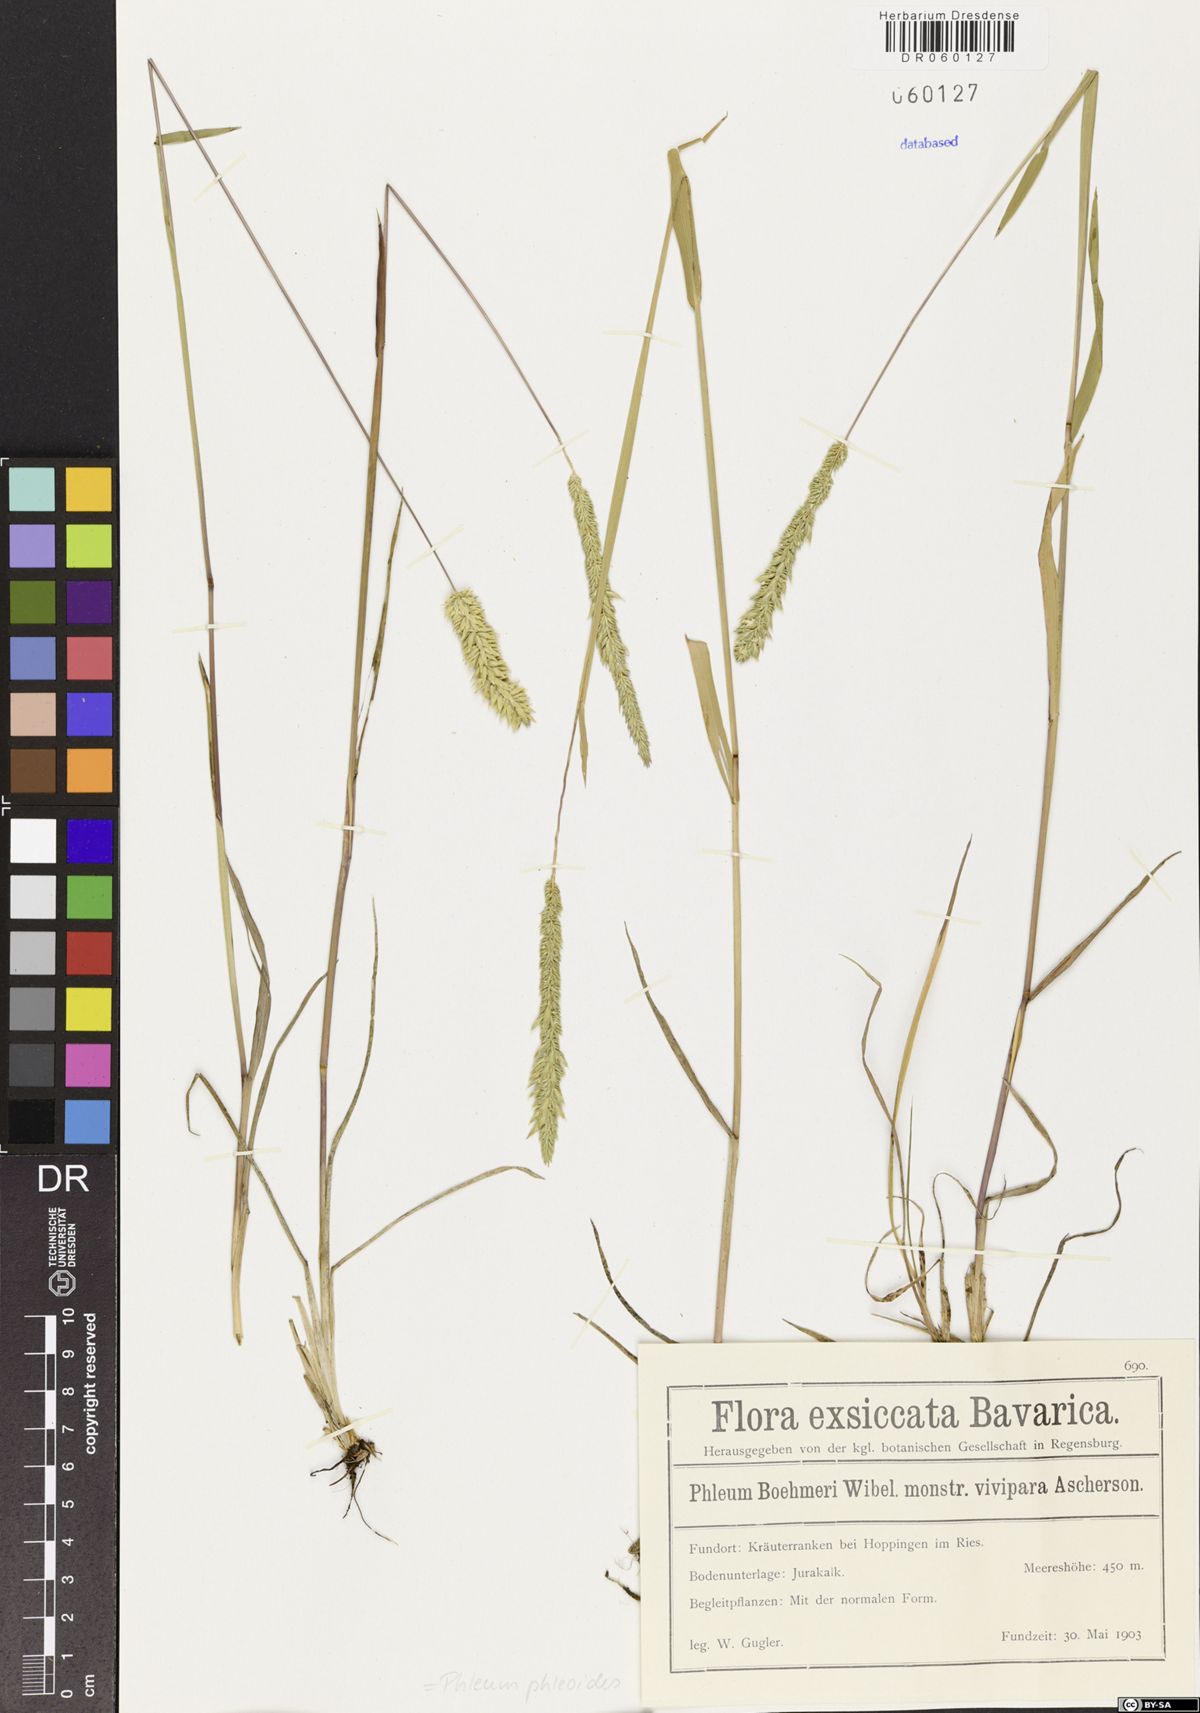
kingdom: Plantae
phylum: Tracheophyta
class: Liliopsida
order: Poales
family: Poaceae
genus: Phleum
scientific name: Phleum phleoides
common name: Purple-stem cat's-tail
